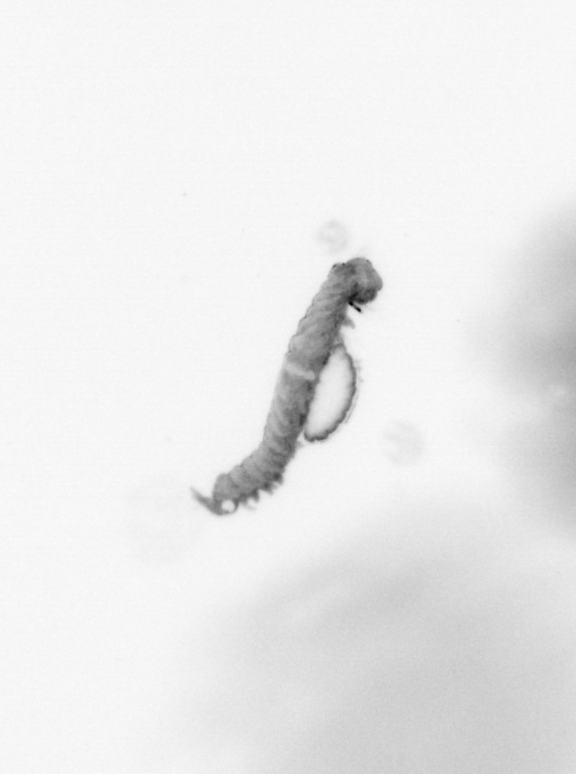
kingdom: Animalia
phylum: Annelida
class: Polychaeta
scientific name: Polychaeta
